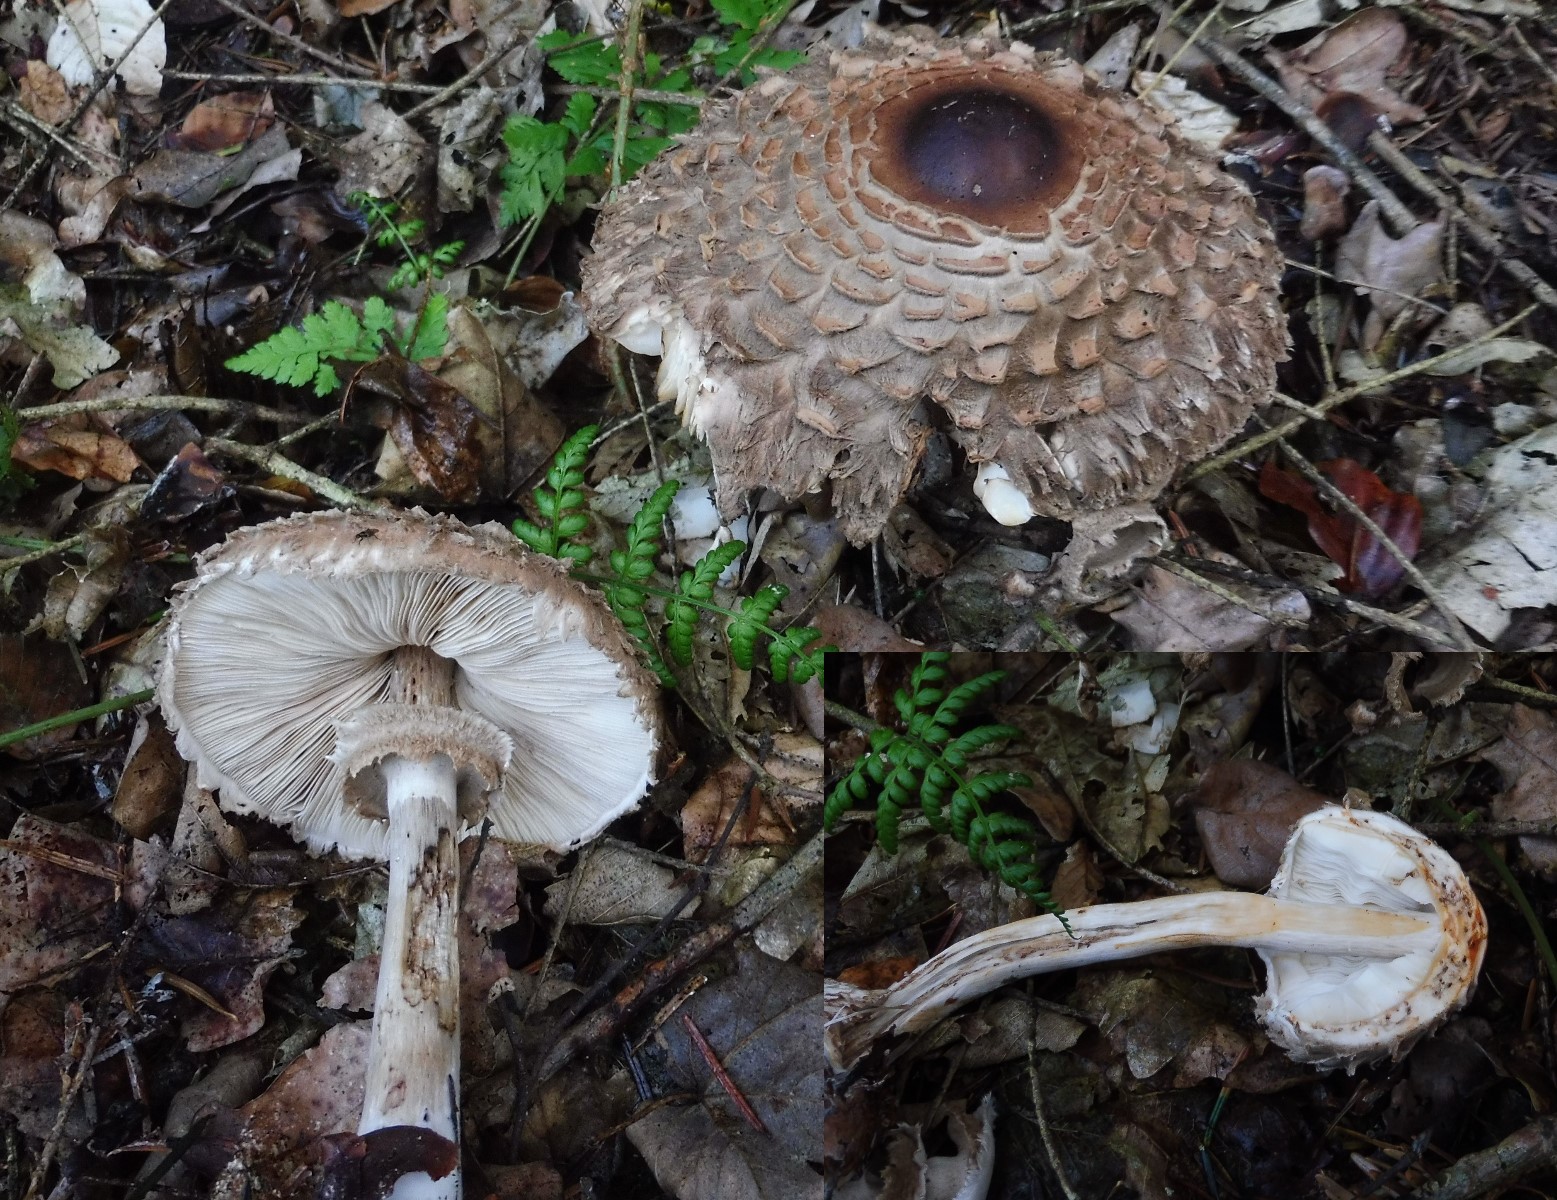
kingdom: Fungi
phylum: Basidiomycota
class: Agaricomycetes
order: Agaricales
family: Agaricaceae
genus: Chlorophyllum
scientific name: Chlorophyllum olivieri
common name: almindelig rabarberhat
